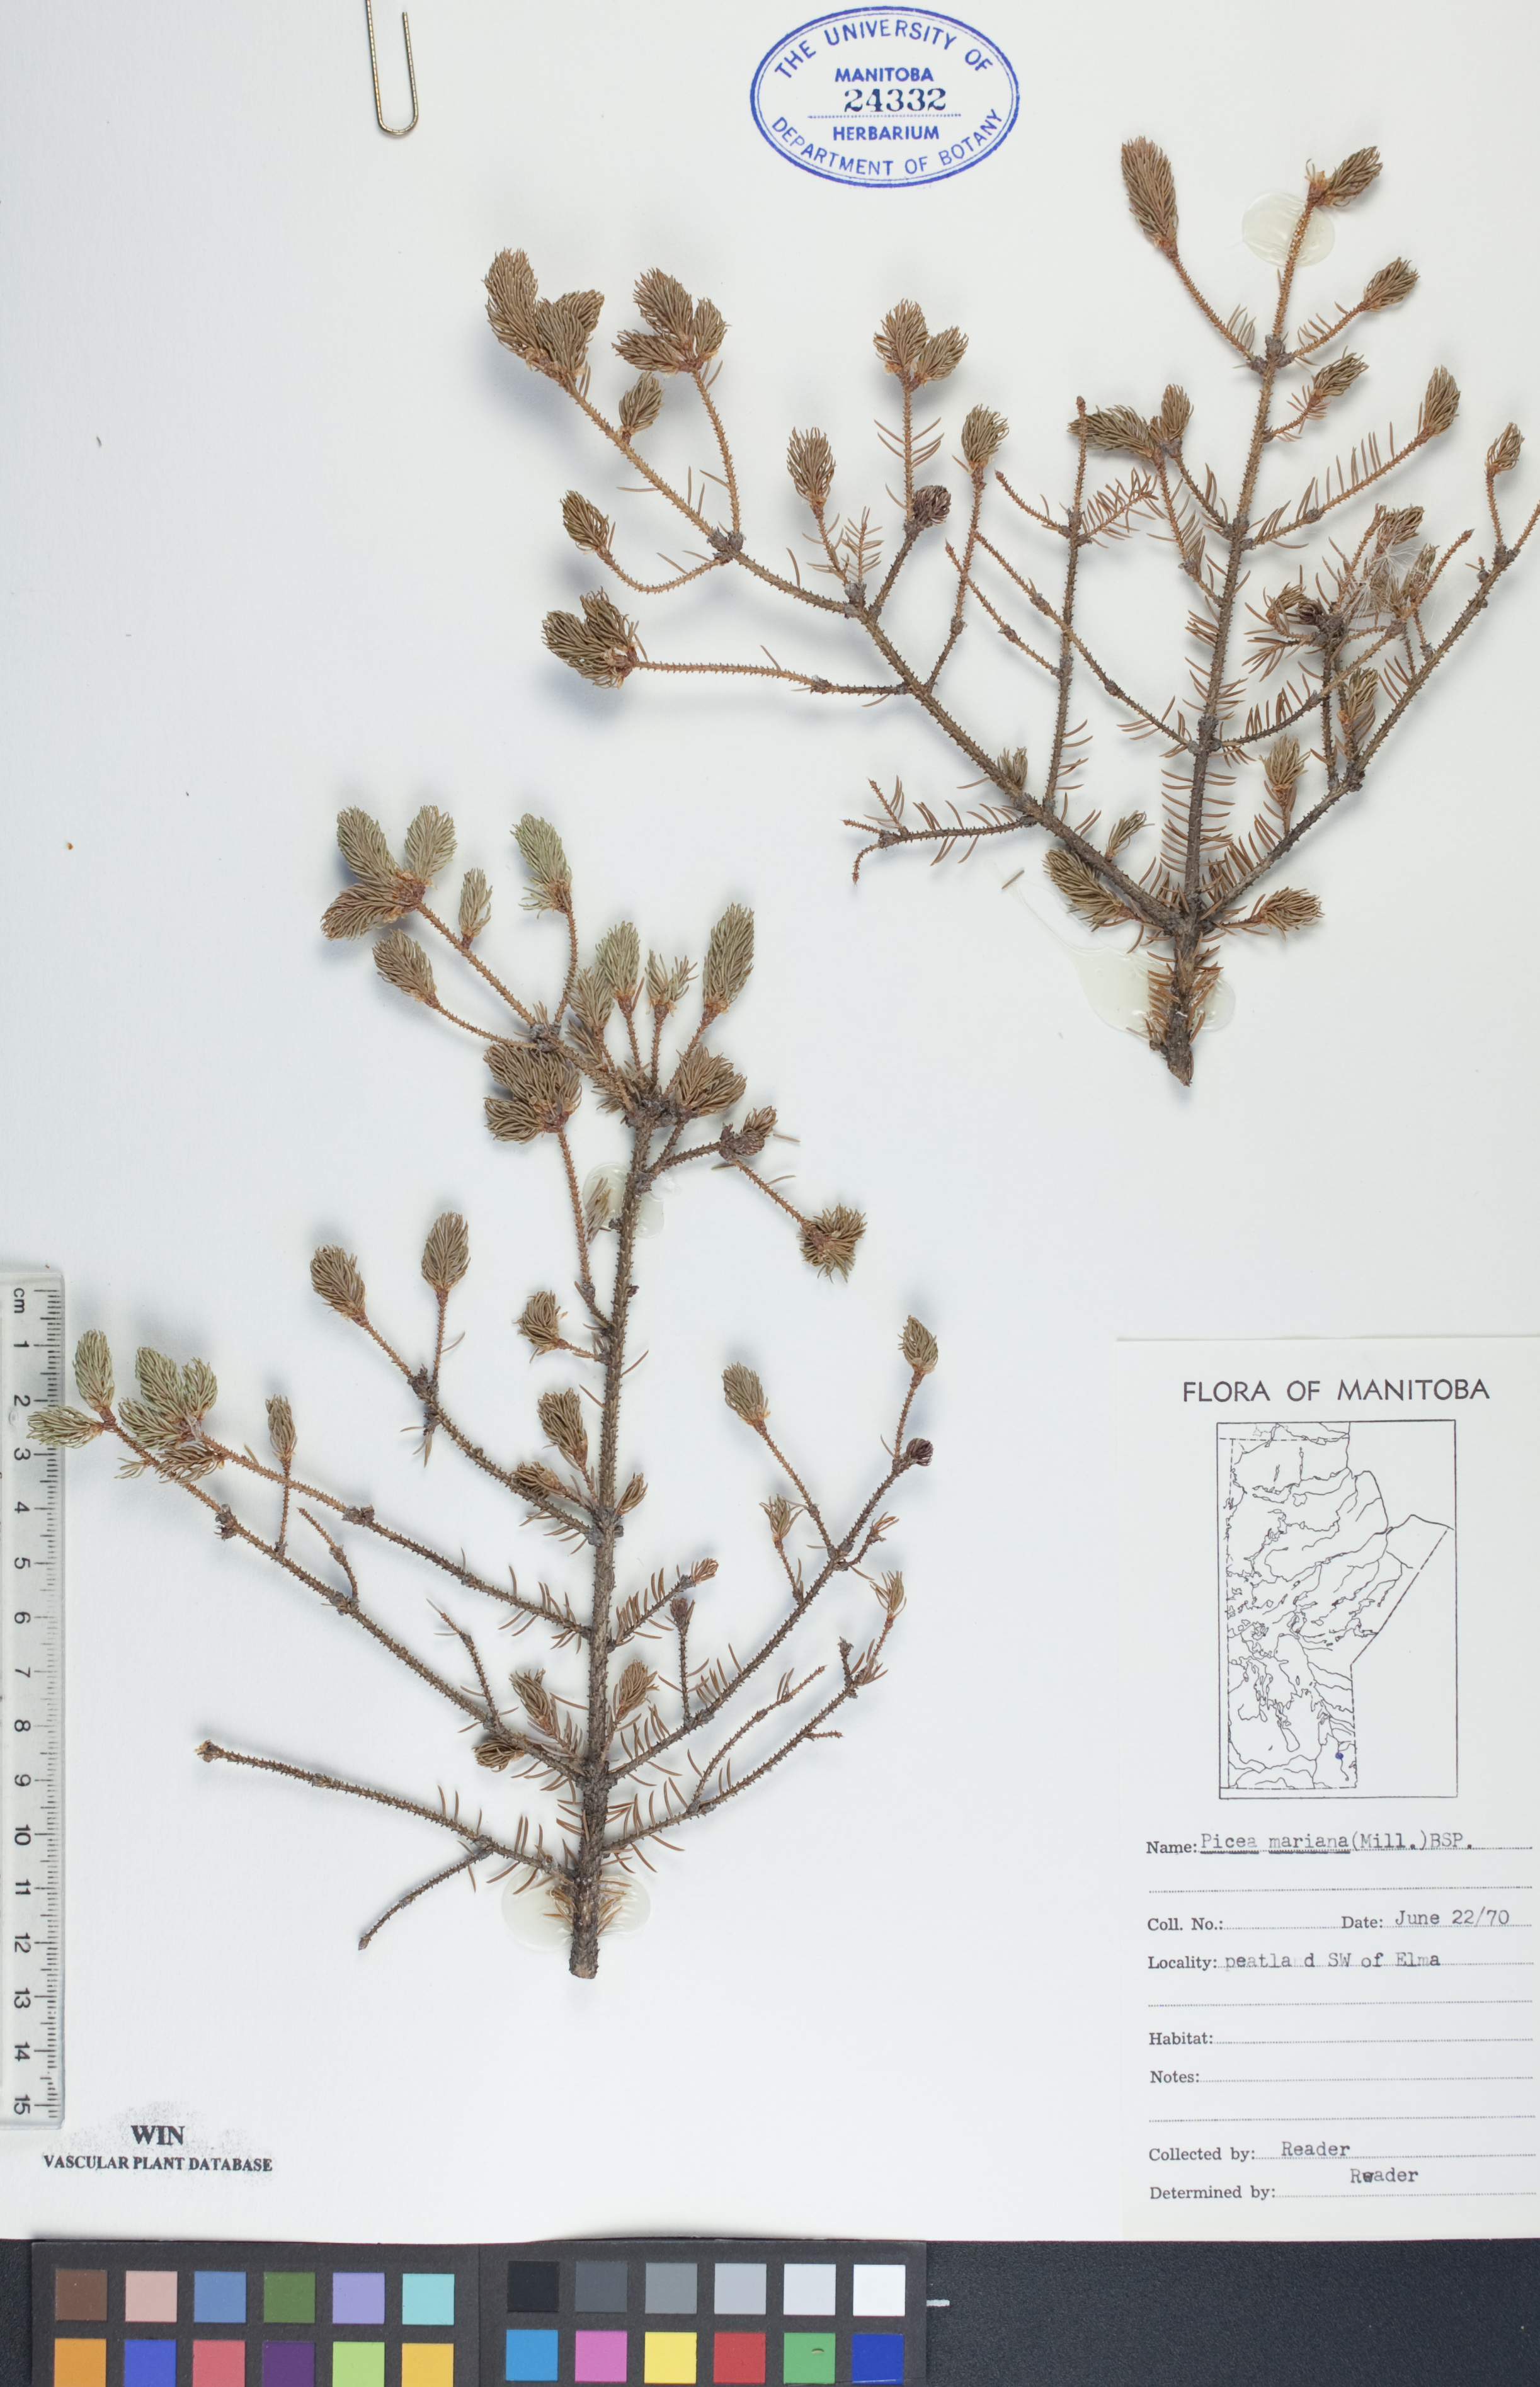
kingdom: Plantae
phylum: Tracheophyta
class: Pinopsida
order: Pinales
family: Pinaceae
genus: Picea
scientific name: Picea mariana
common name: Black spruce
